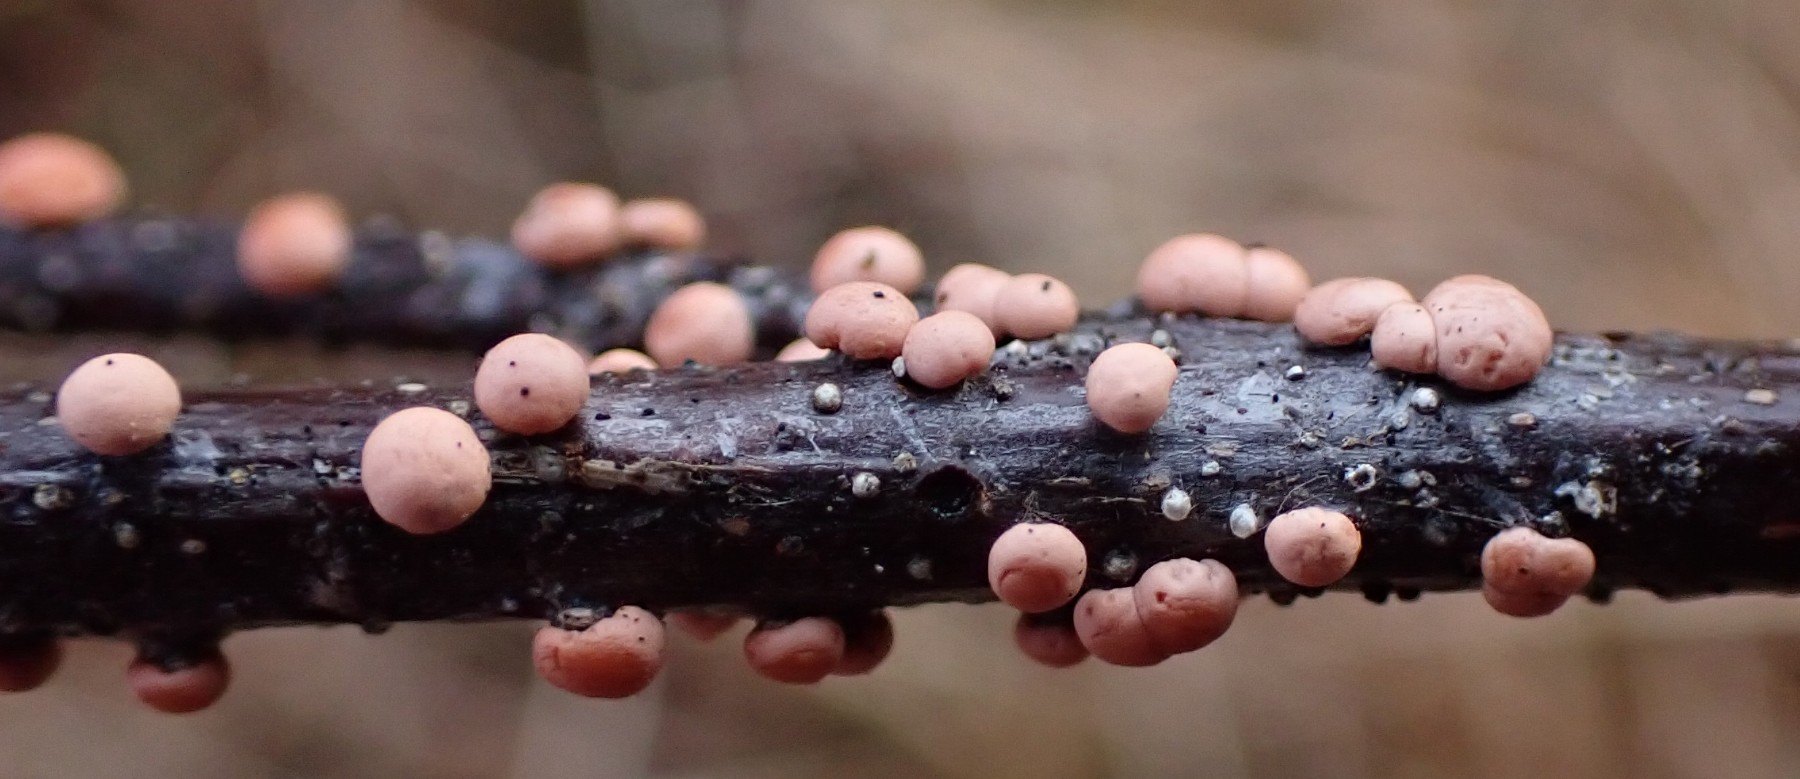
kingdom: Fungi
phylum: Ascomycota
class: Sordariomycetes
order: Hypocreales
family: Nectriaceae
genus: Nectria
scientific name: Nectria cinnabarina
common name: almindelig cinnobersvamp
